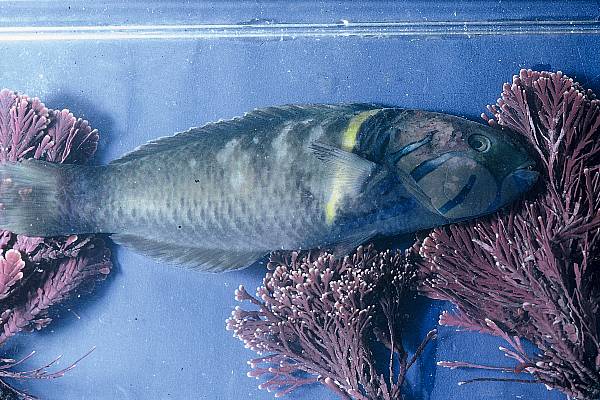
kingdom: Animalia
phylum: Chordata
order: Perciformes
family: Labridae
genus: Thalassoma
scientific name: Thalassoma hebraicum
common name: Goldbar wrasse
